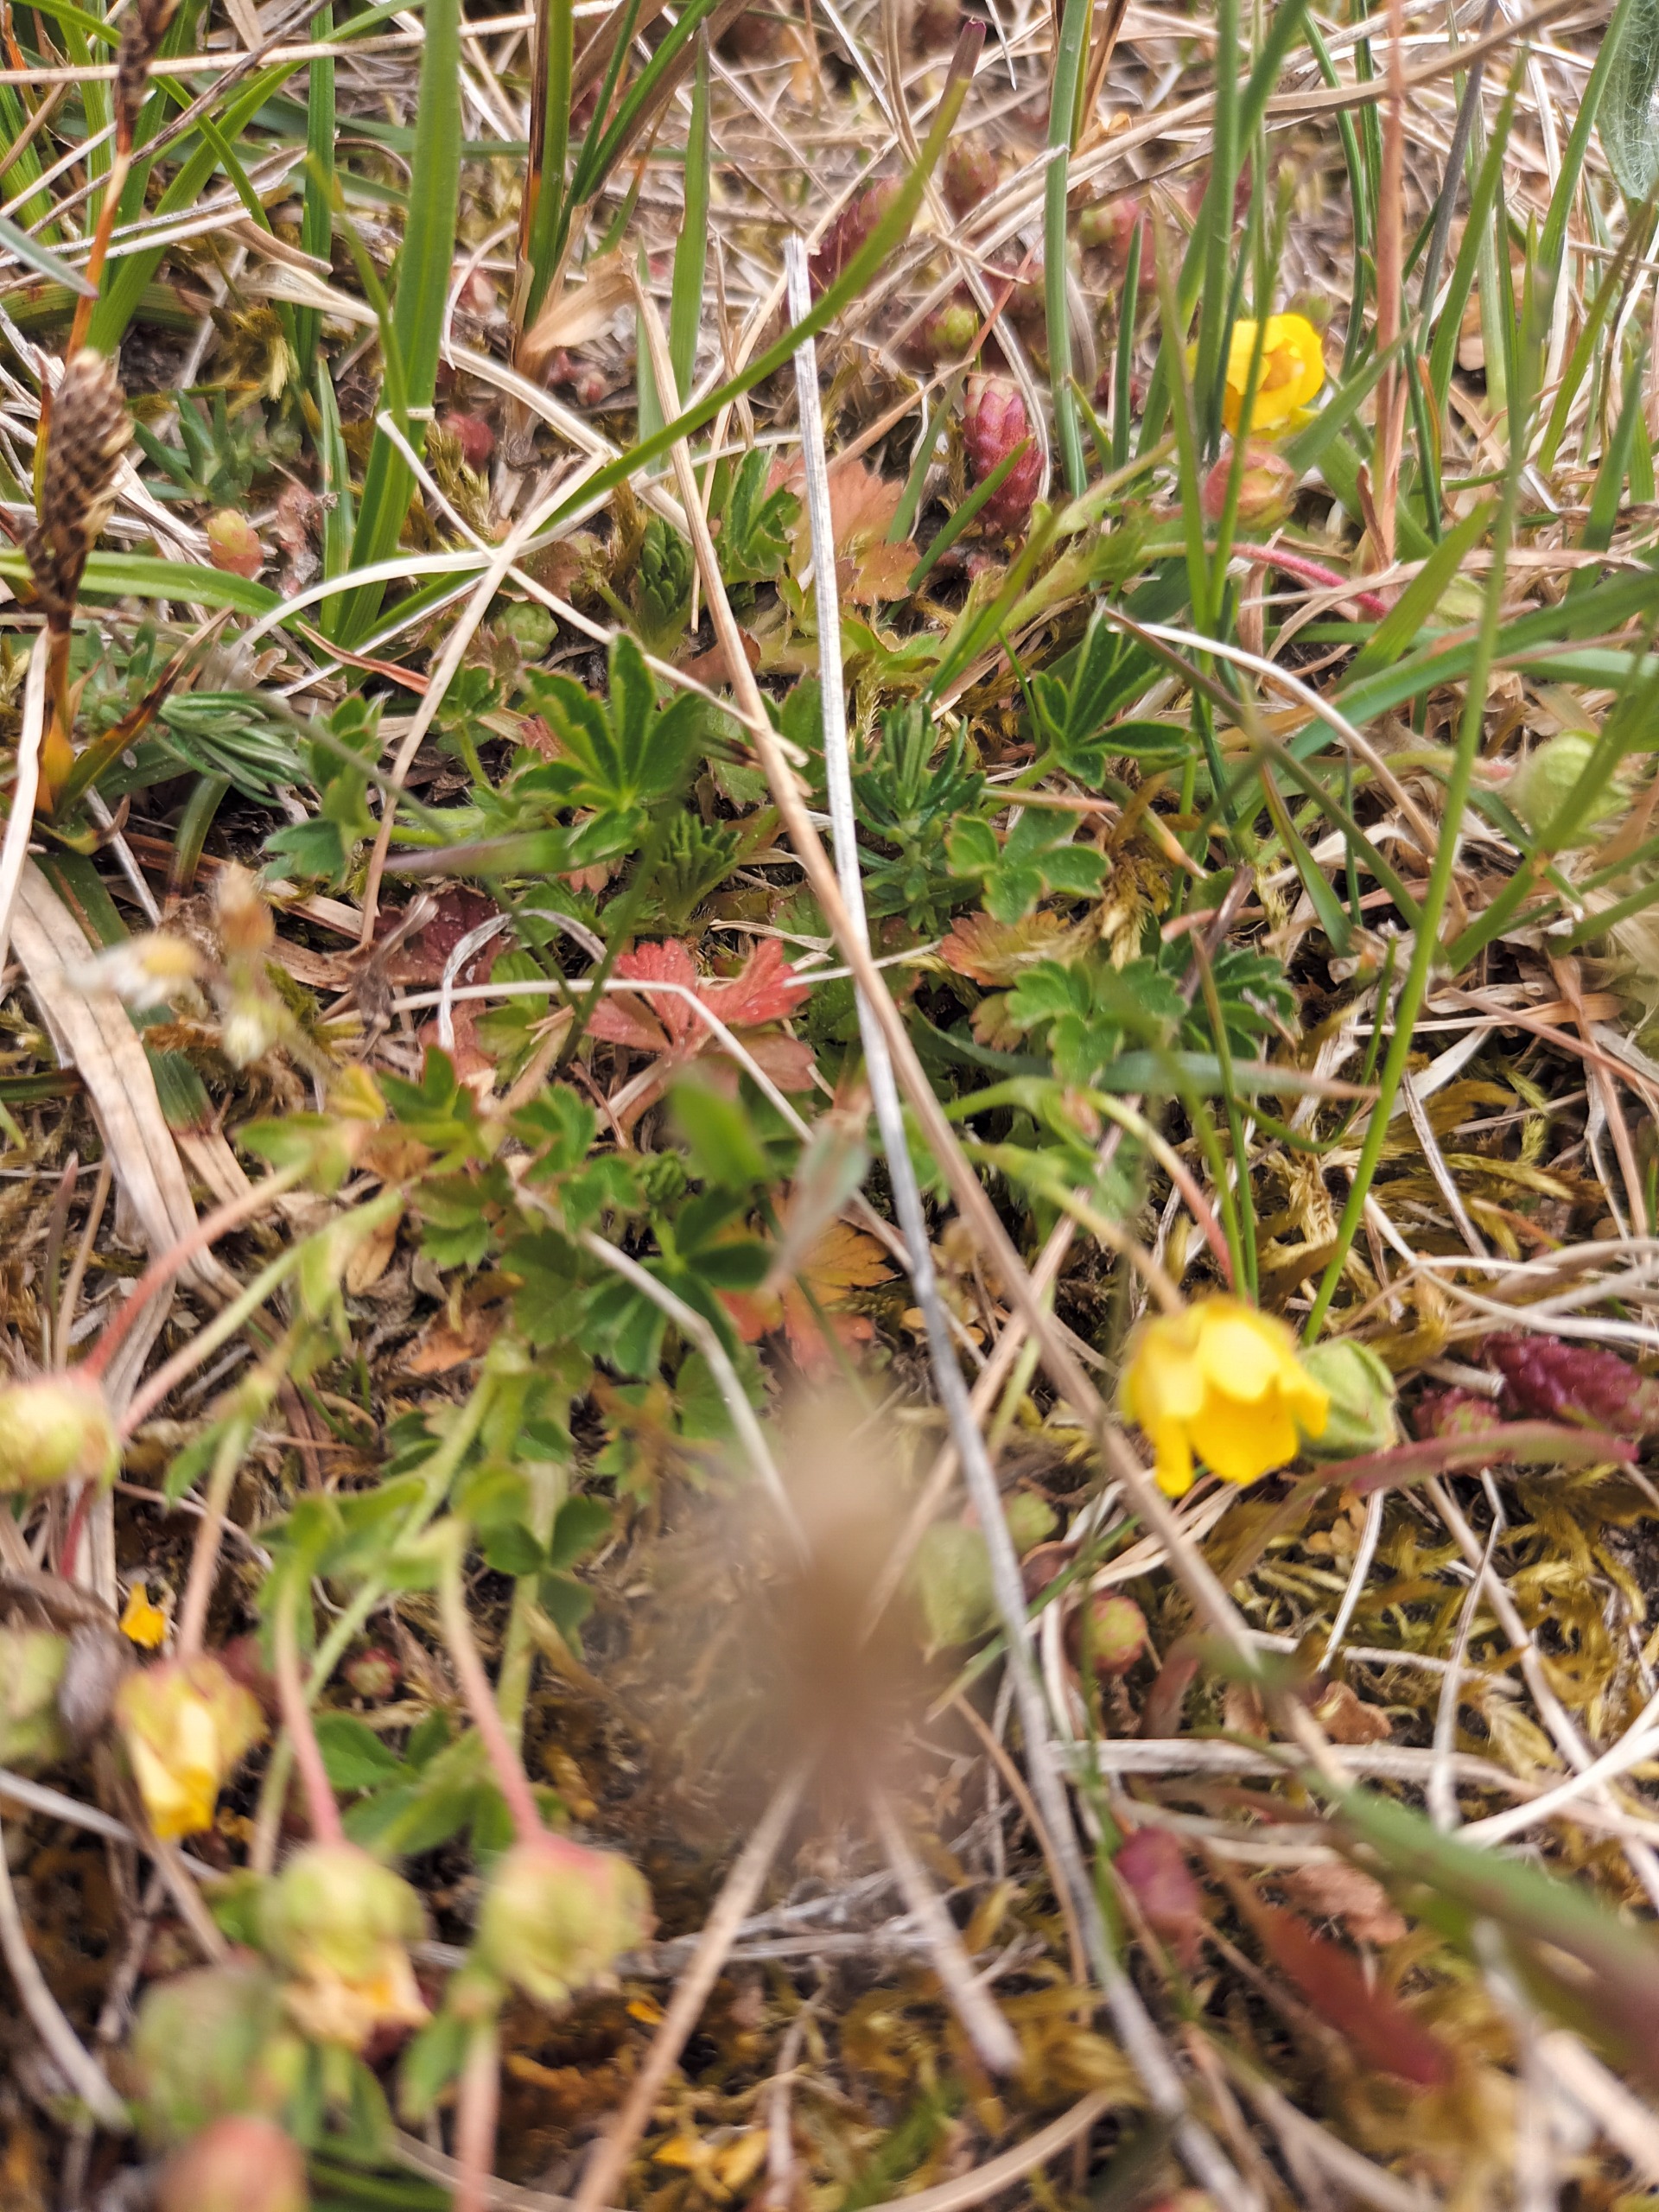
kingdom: Plantae
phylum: Tracheophyta
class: Magnoliopsida
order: Rosales
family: Rosaceae
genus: Potentilla
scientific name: Potentilla verna
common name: Vår-potentil
